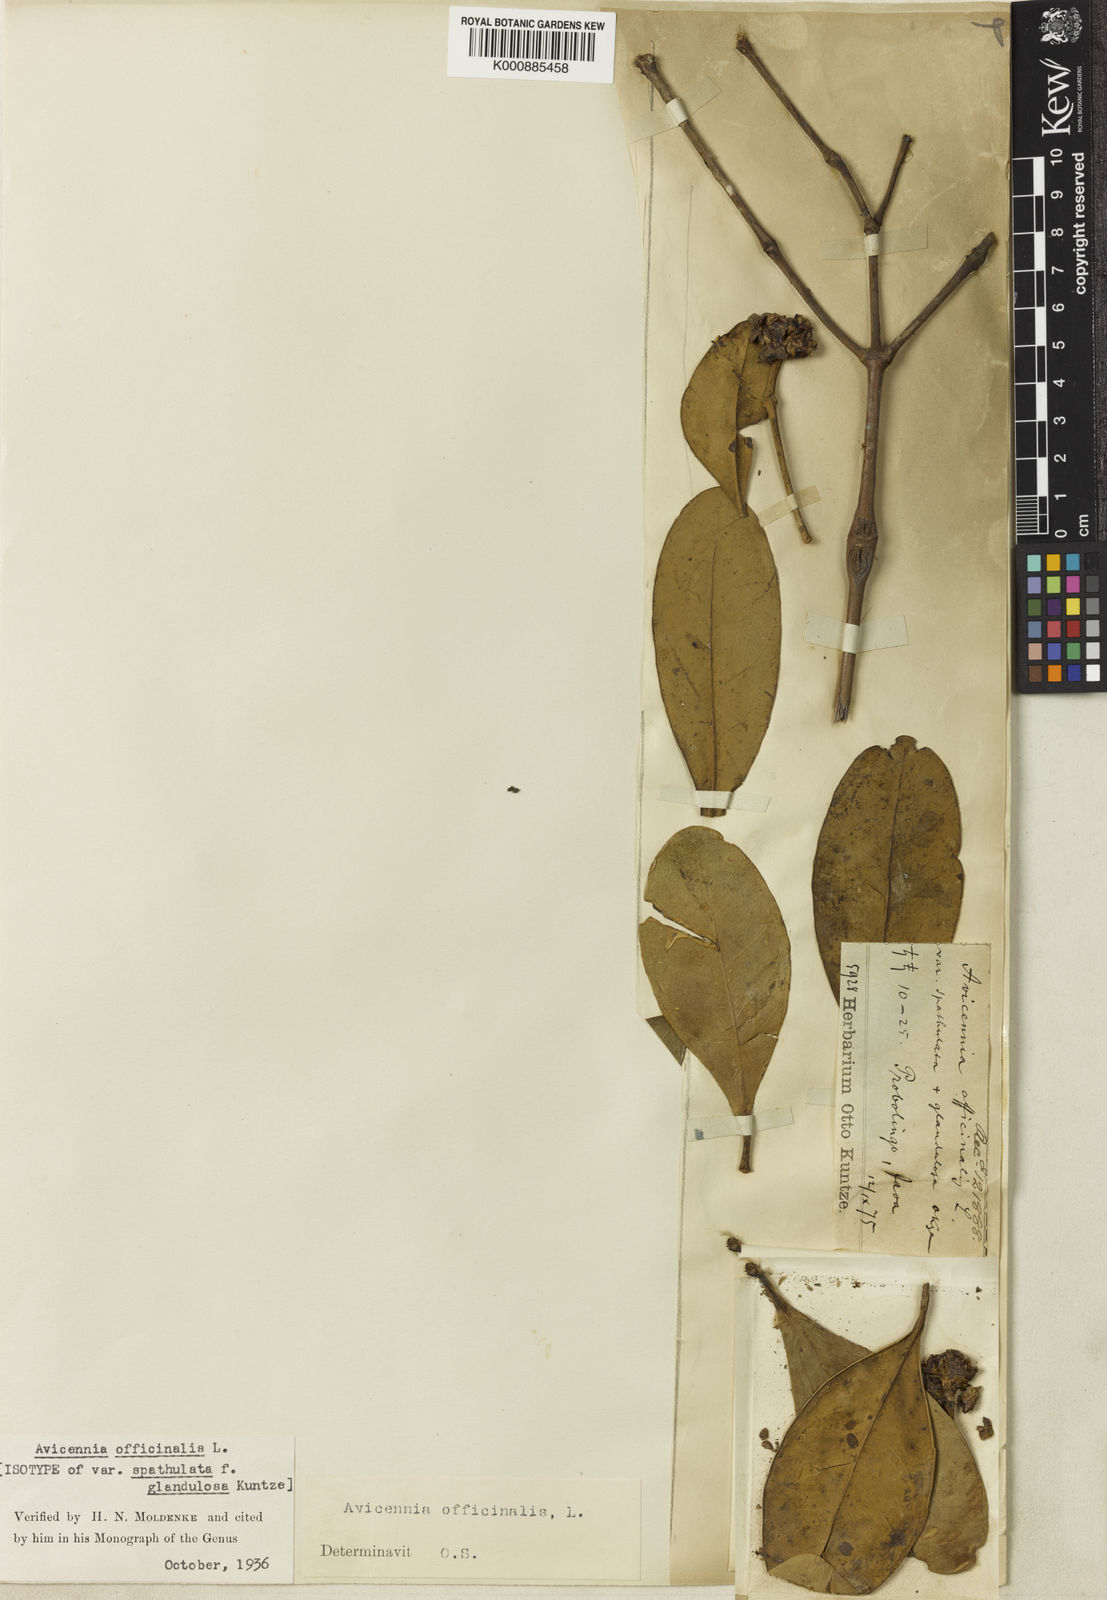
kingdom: Plantae
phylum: Tracheophyta
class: Magnoliopsida
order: Lamiales
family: Acanthaceae
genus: Avicennia
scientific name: Avicennia officinalis
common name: Baen
